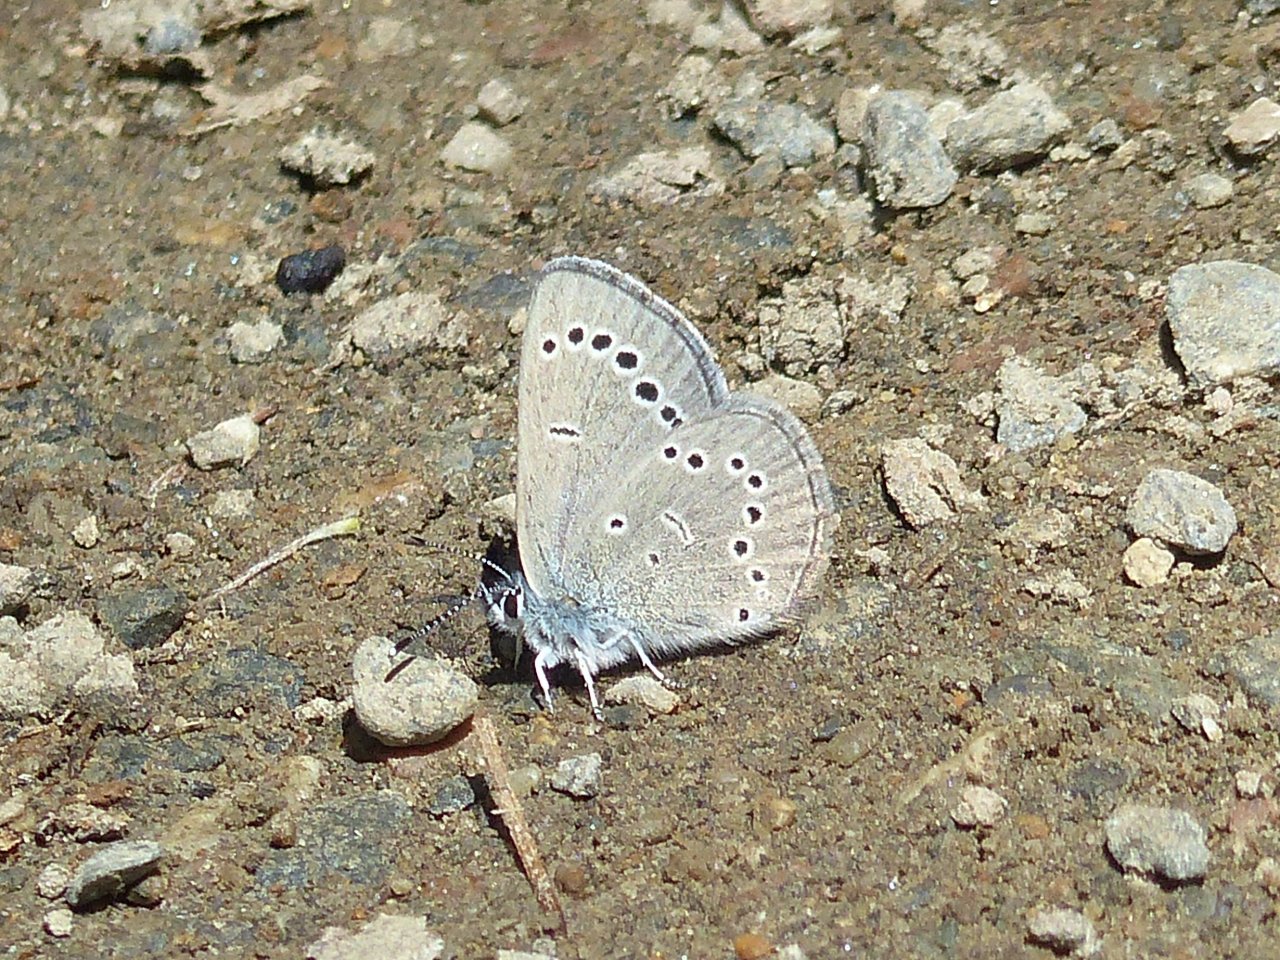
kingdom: Animalia
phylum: Arthropoda
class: Insecta
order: Lepidoptera
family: Lycaenidae
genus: Glaucopsyche
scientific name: Glaucopsyche lygdamus
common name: Silvery Blue
